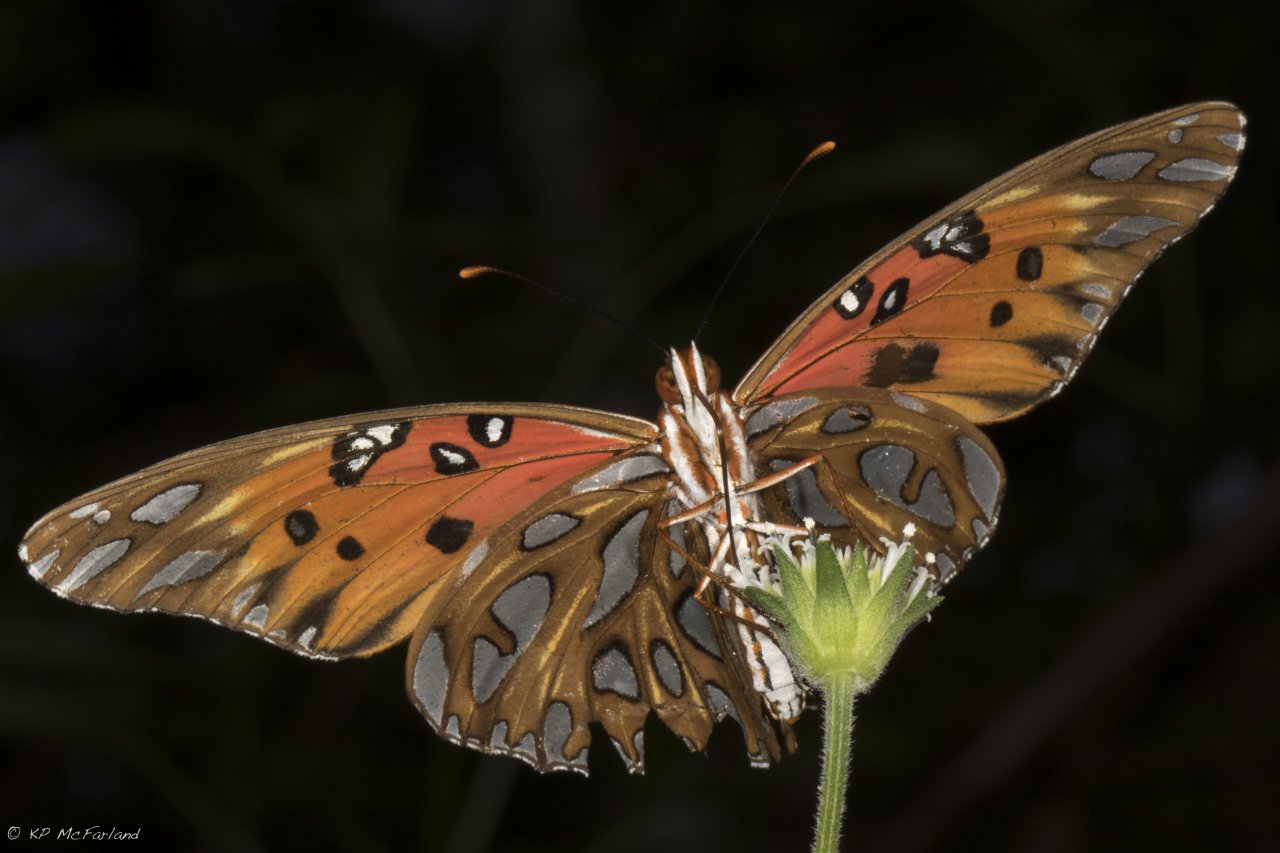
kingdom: Animalia
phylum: Arthropoda
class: Insecta
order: Lepidoptera
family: Nymphalidae
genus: Dione
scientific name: Dione vanillae
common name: Gulf Fritillary
